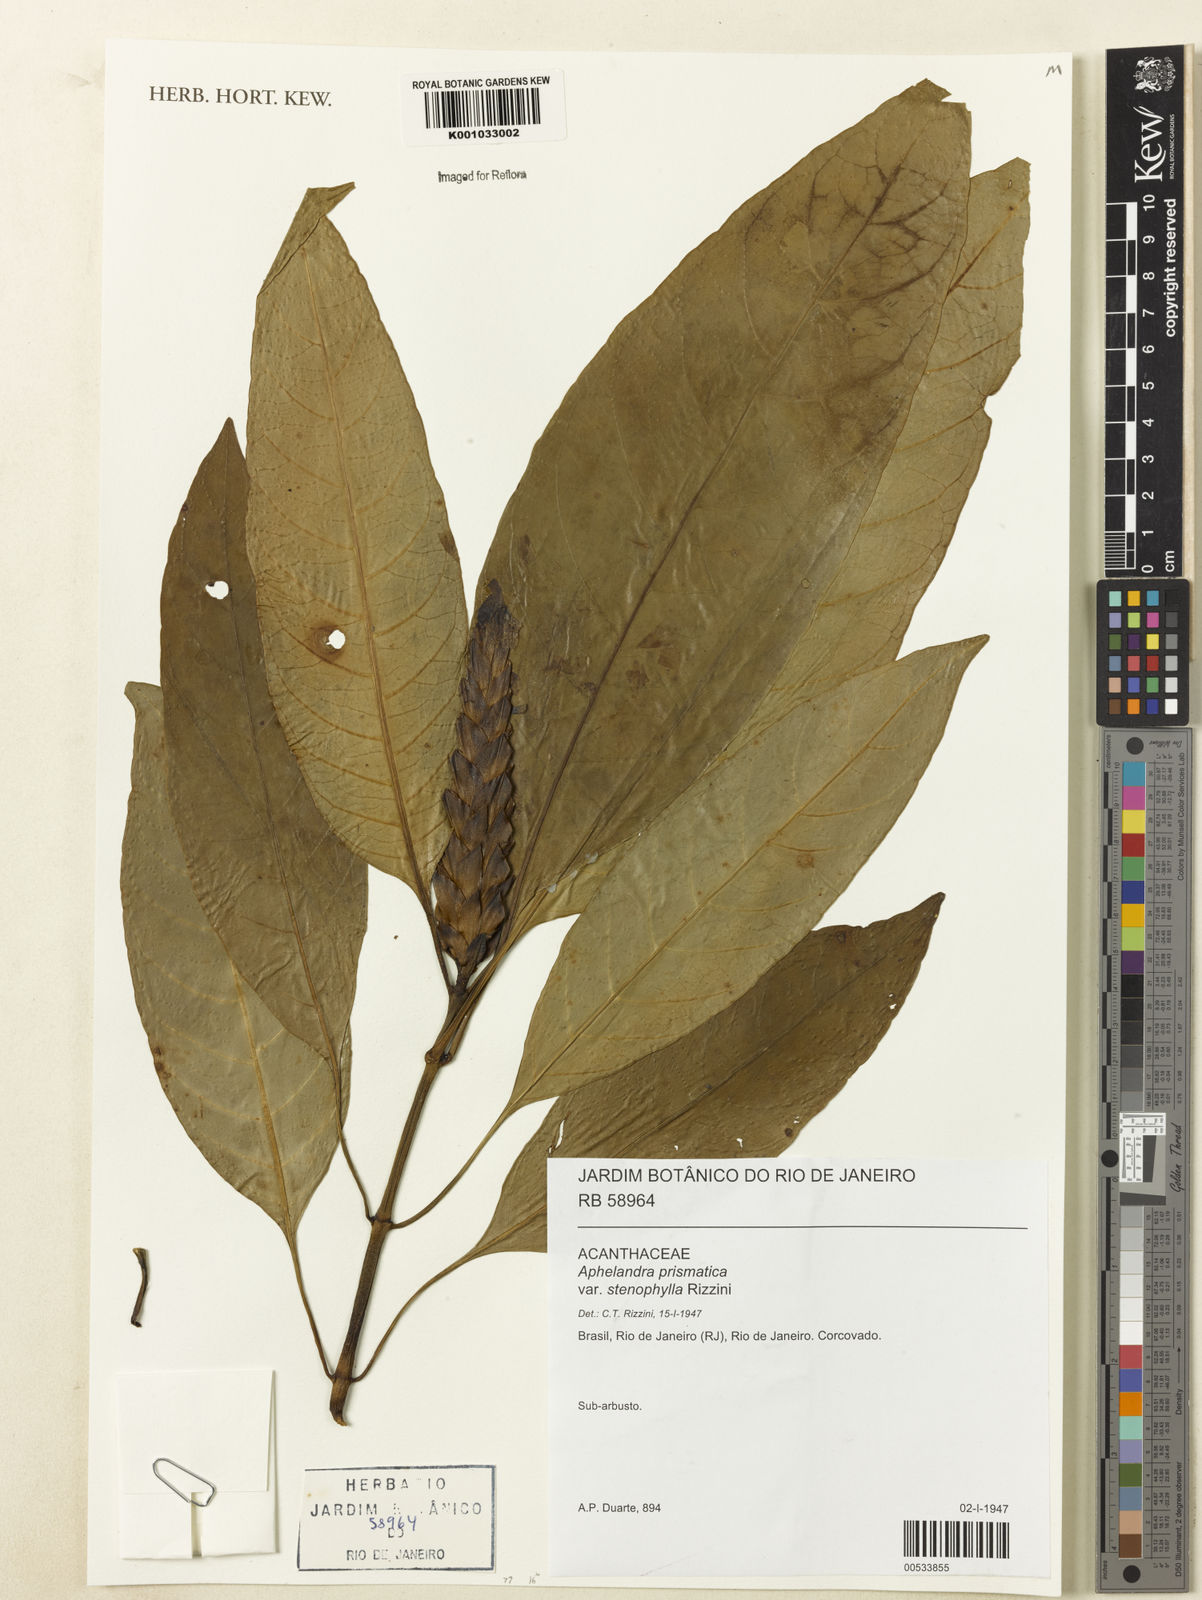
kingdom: Plantae
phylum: Tracheophyta
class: Magnoliopsida
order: Lamiales
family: Acanthaceae
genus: Aphelandra
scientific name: Aphelandra prismatica
